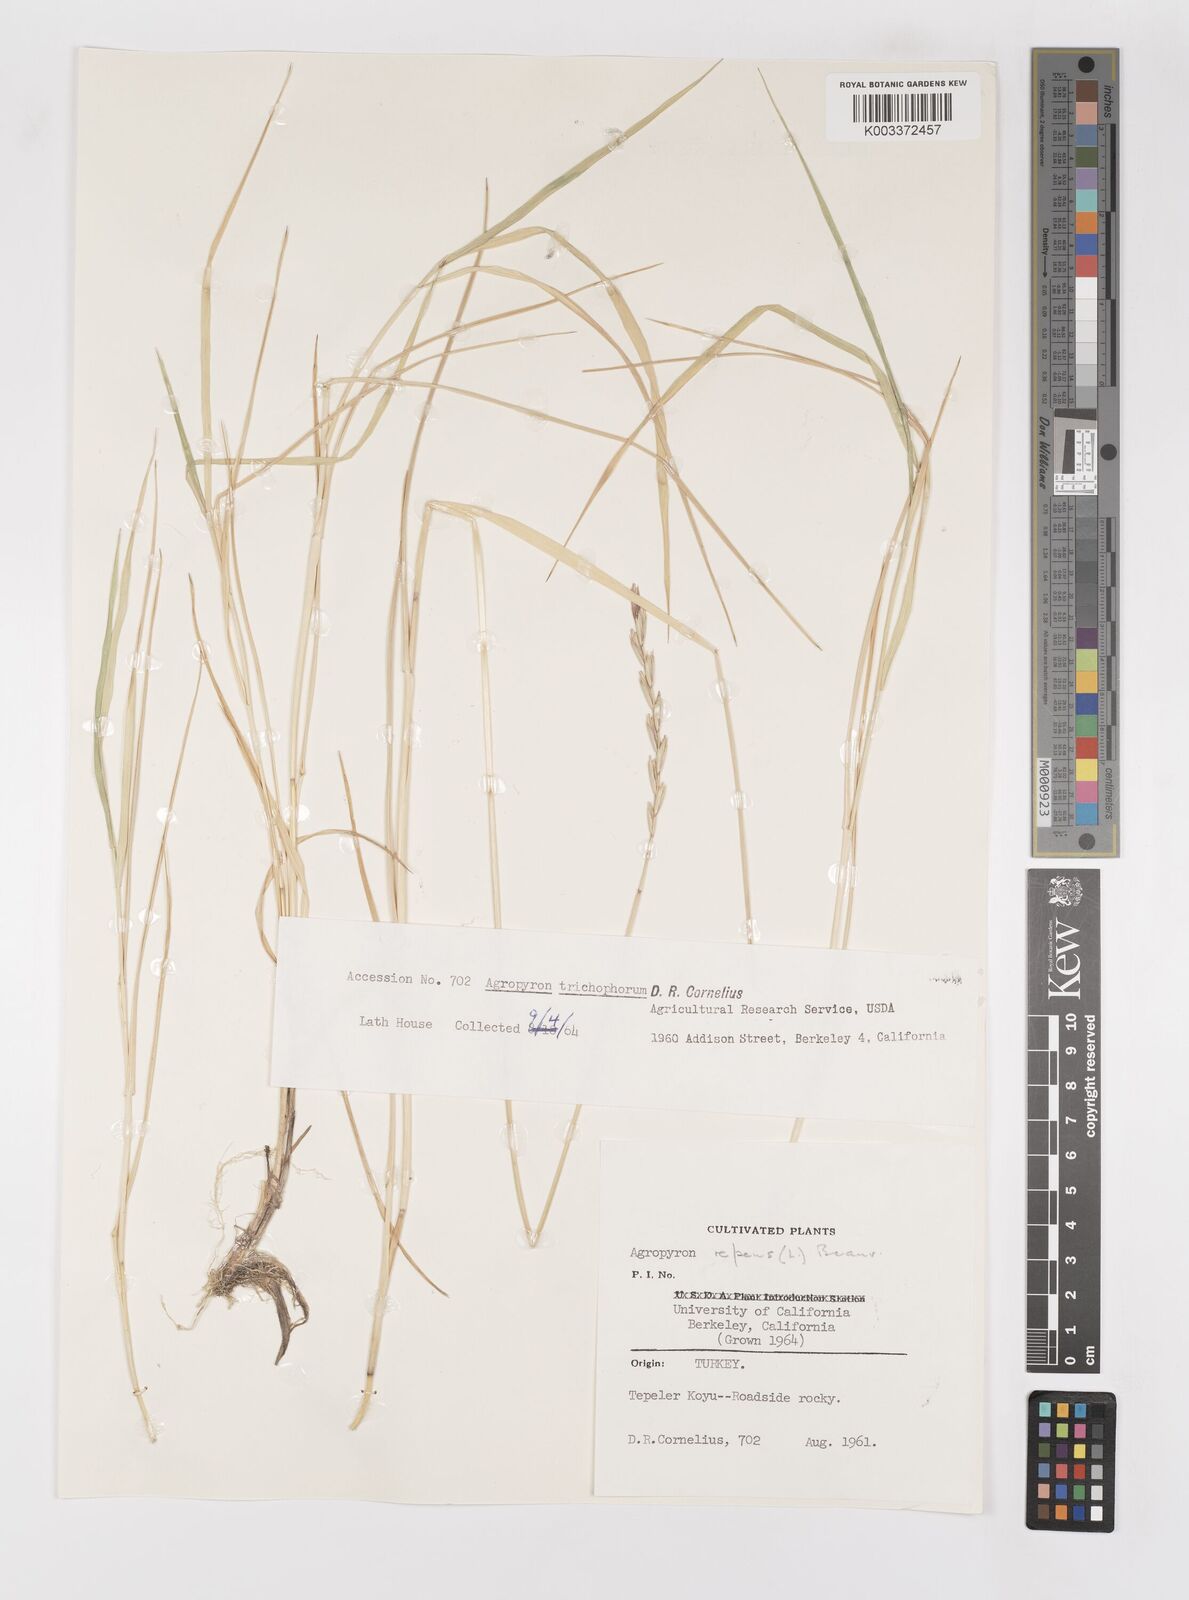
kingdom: Plantae
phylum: Tracheophyta
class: Liliopsida
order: Poales
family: Poaceae
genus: Elymus
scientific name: Elymus repens
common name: Quackgrass
